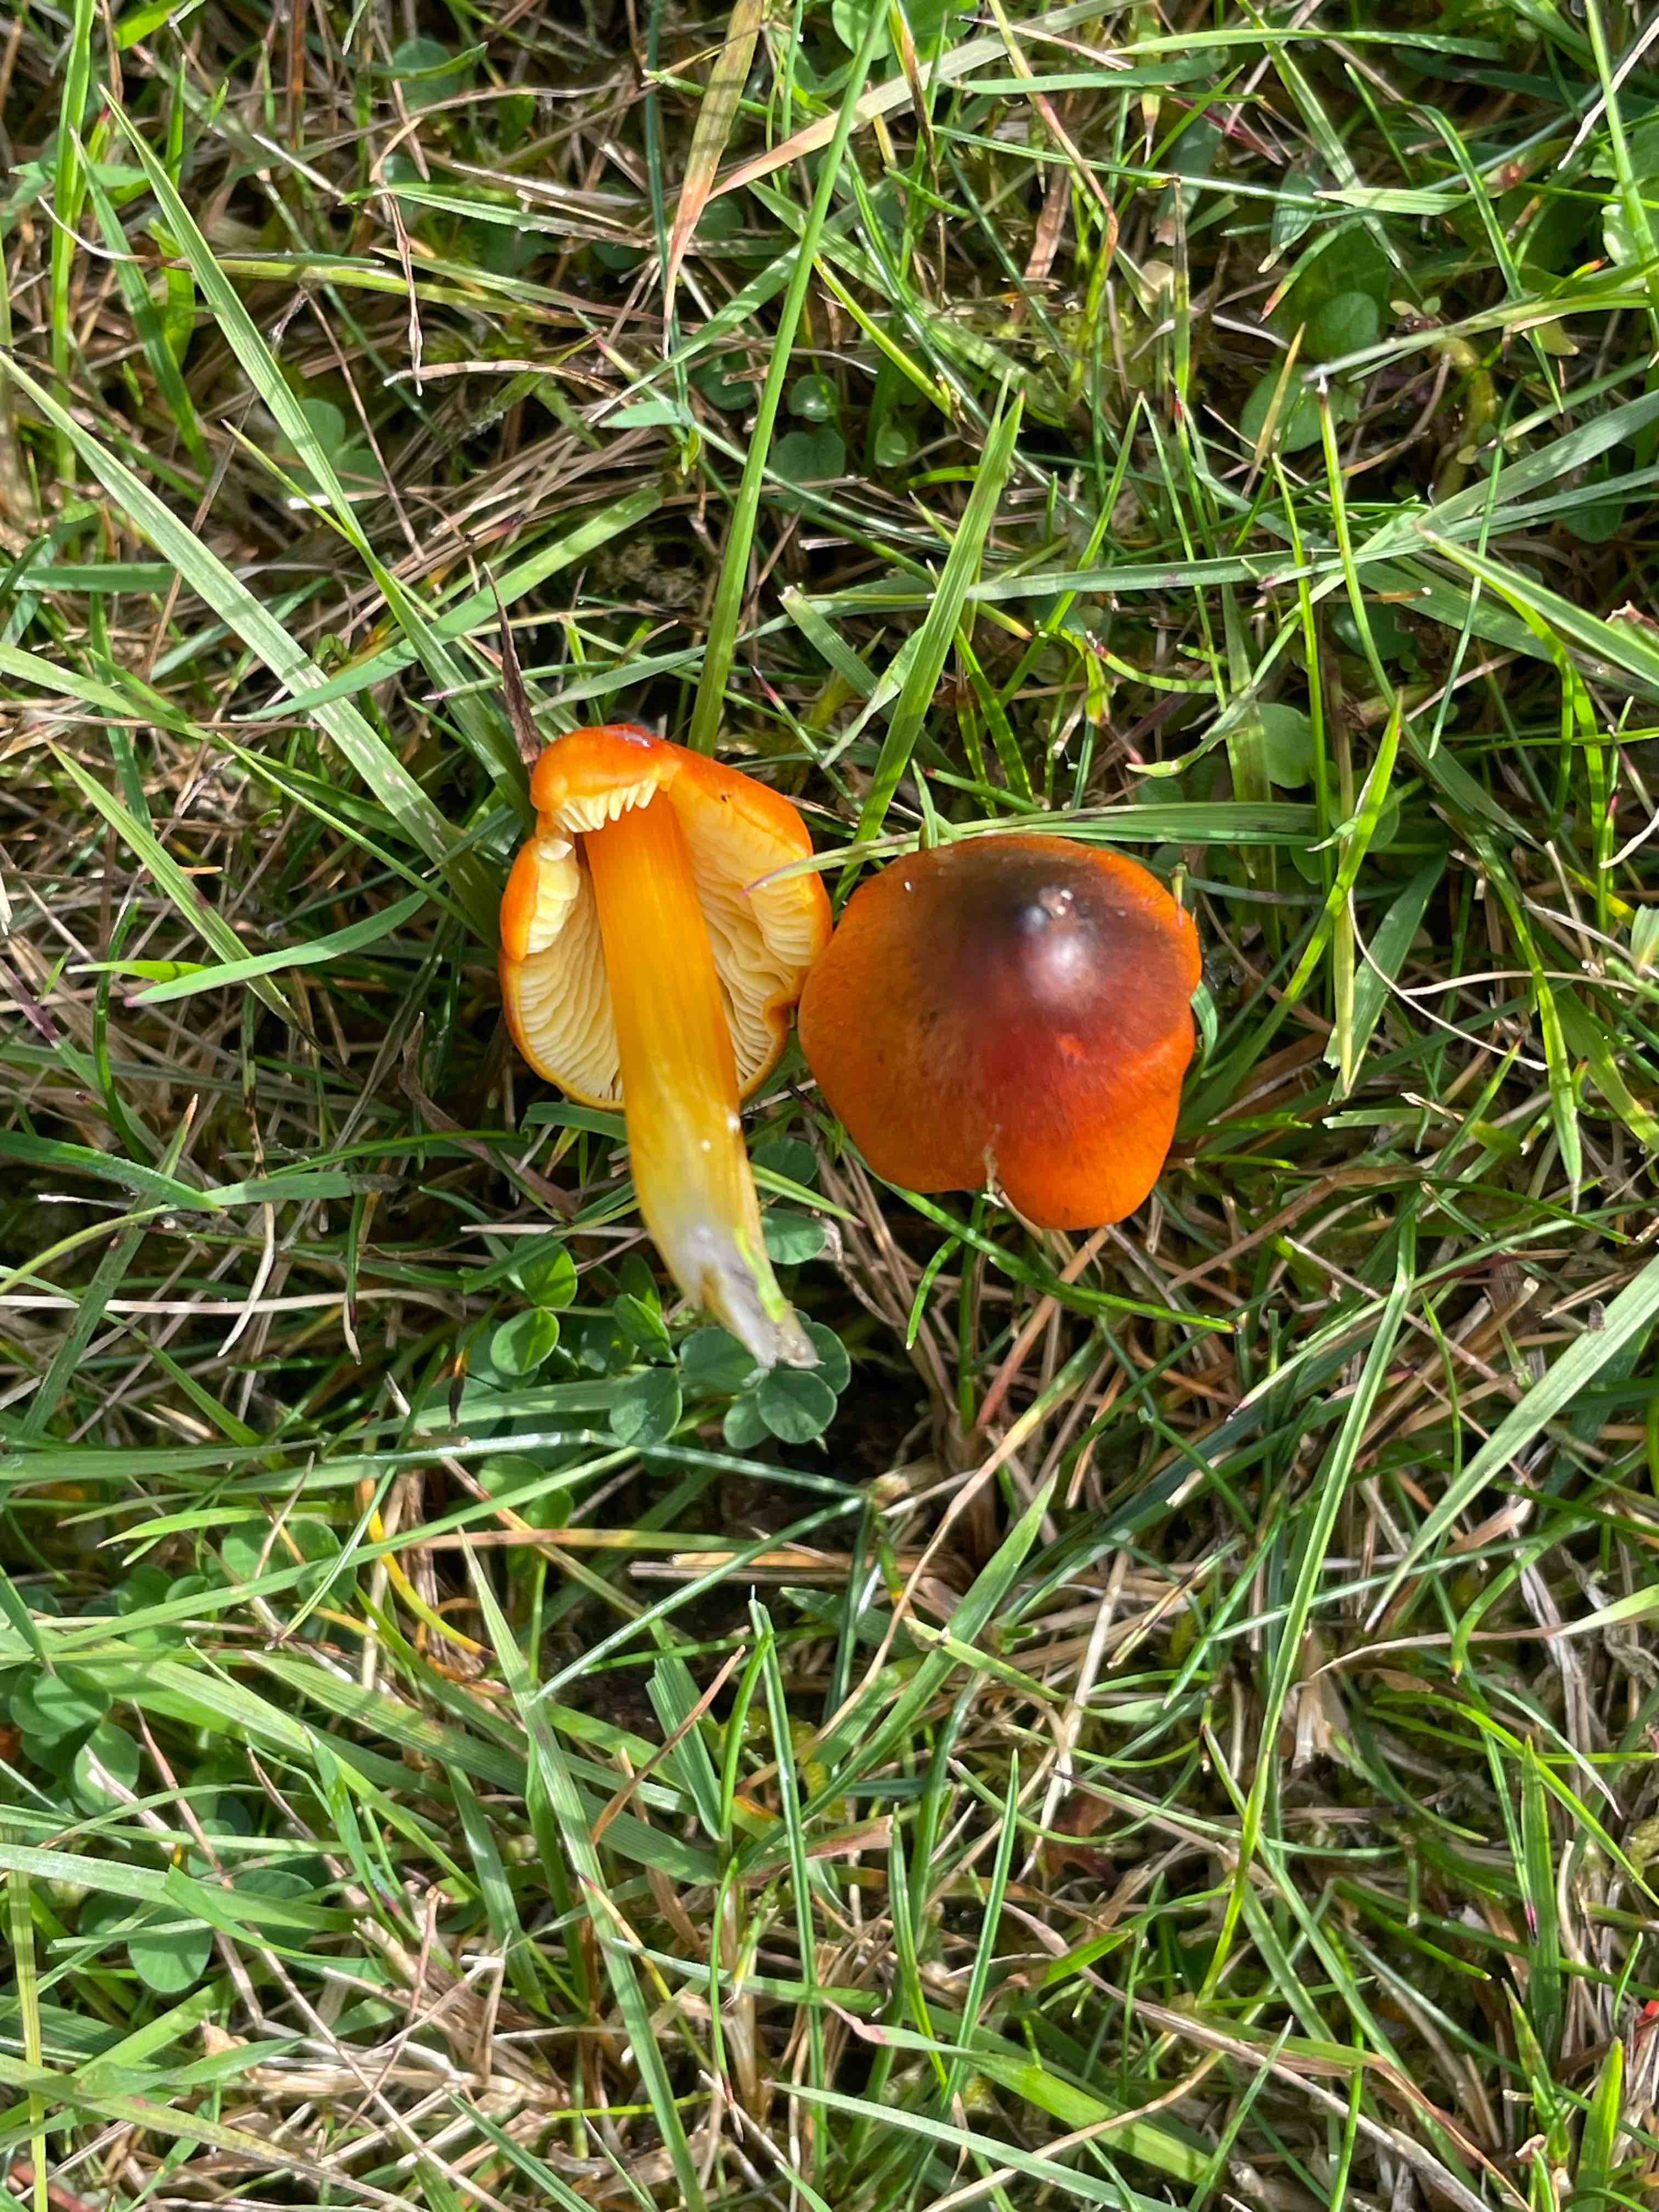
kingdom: Fungi
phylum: Basidiomycota
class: Agaricomycetes
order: Agaricales
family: Hygrophoraceae
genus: Hygrocybe
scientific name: Hygrocybe conica
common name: kegle-vokshat
